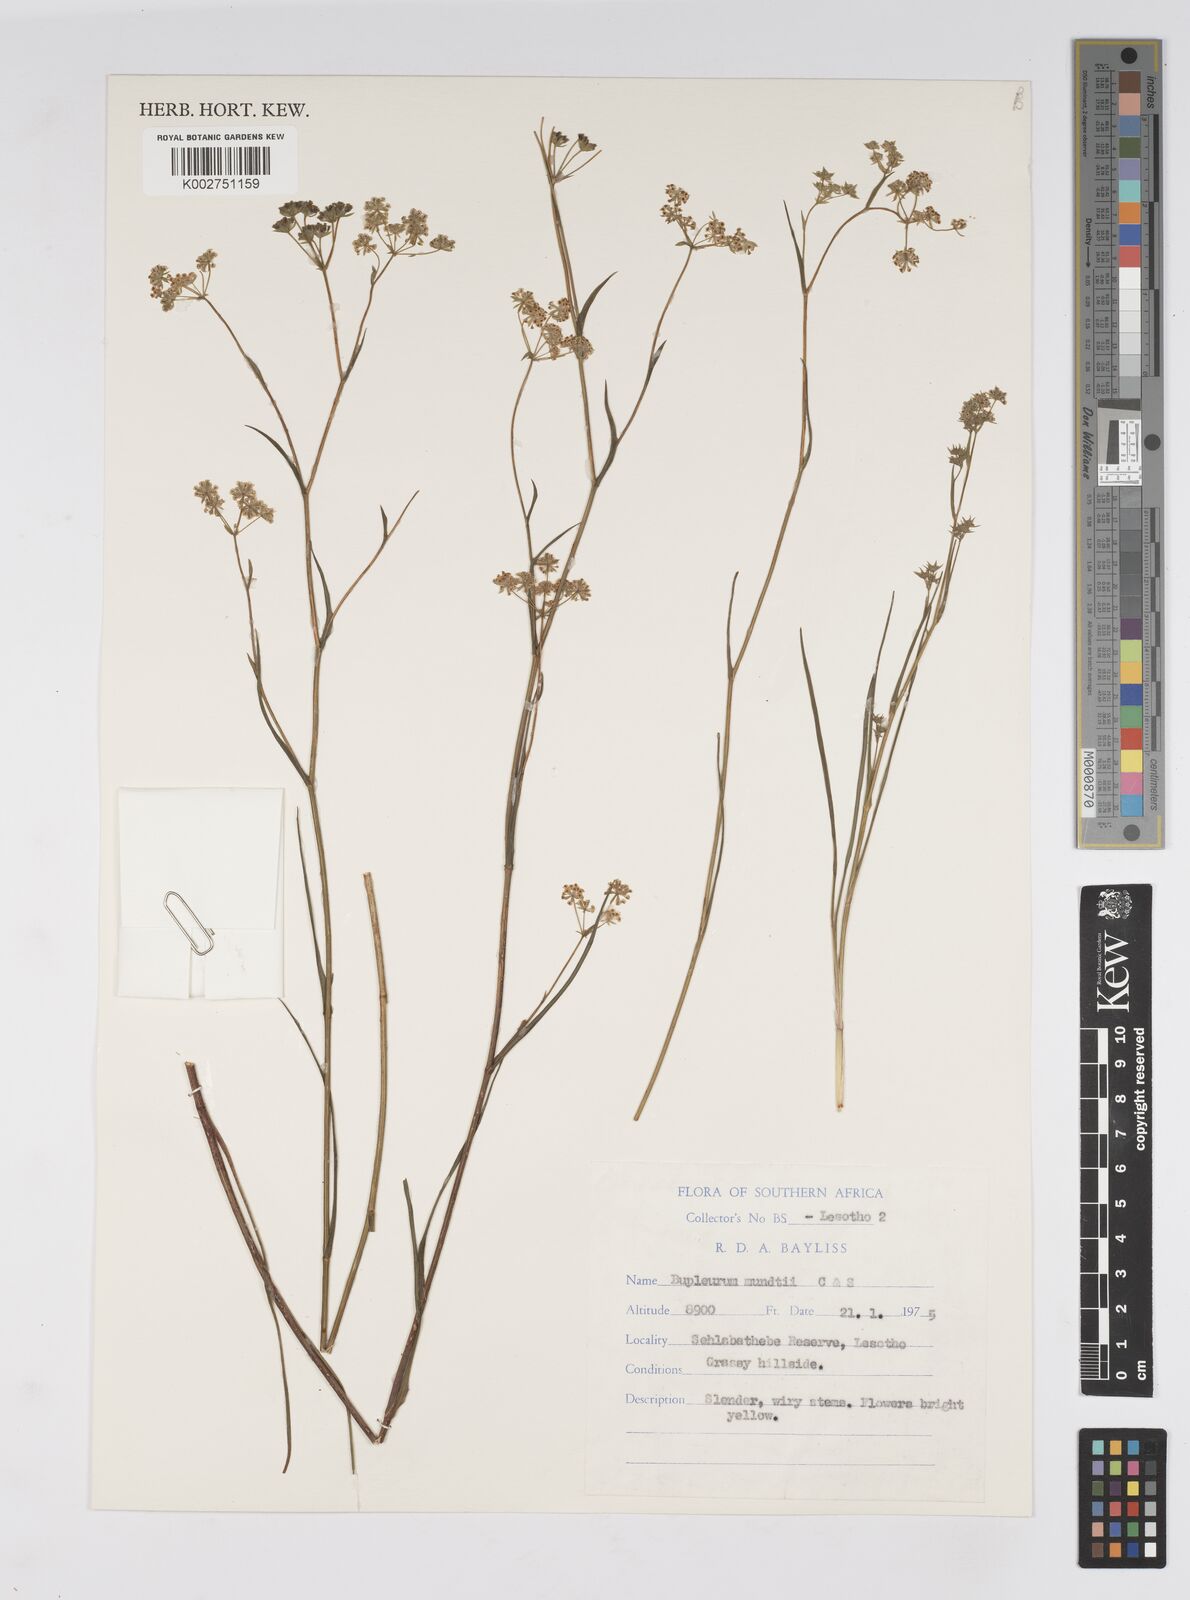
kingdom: Plantae
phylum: Tracheophyta
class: Magnoliopsida
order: Apiales
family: Apiaceae
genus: Bupleurum
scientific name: Bupleurum mundii
